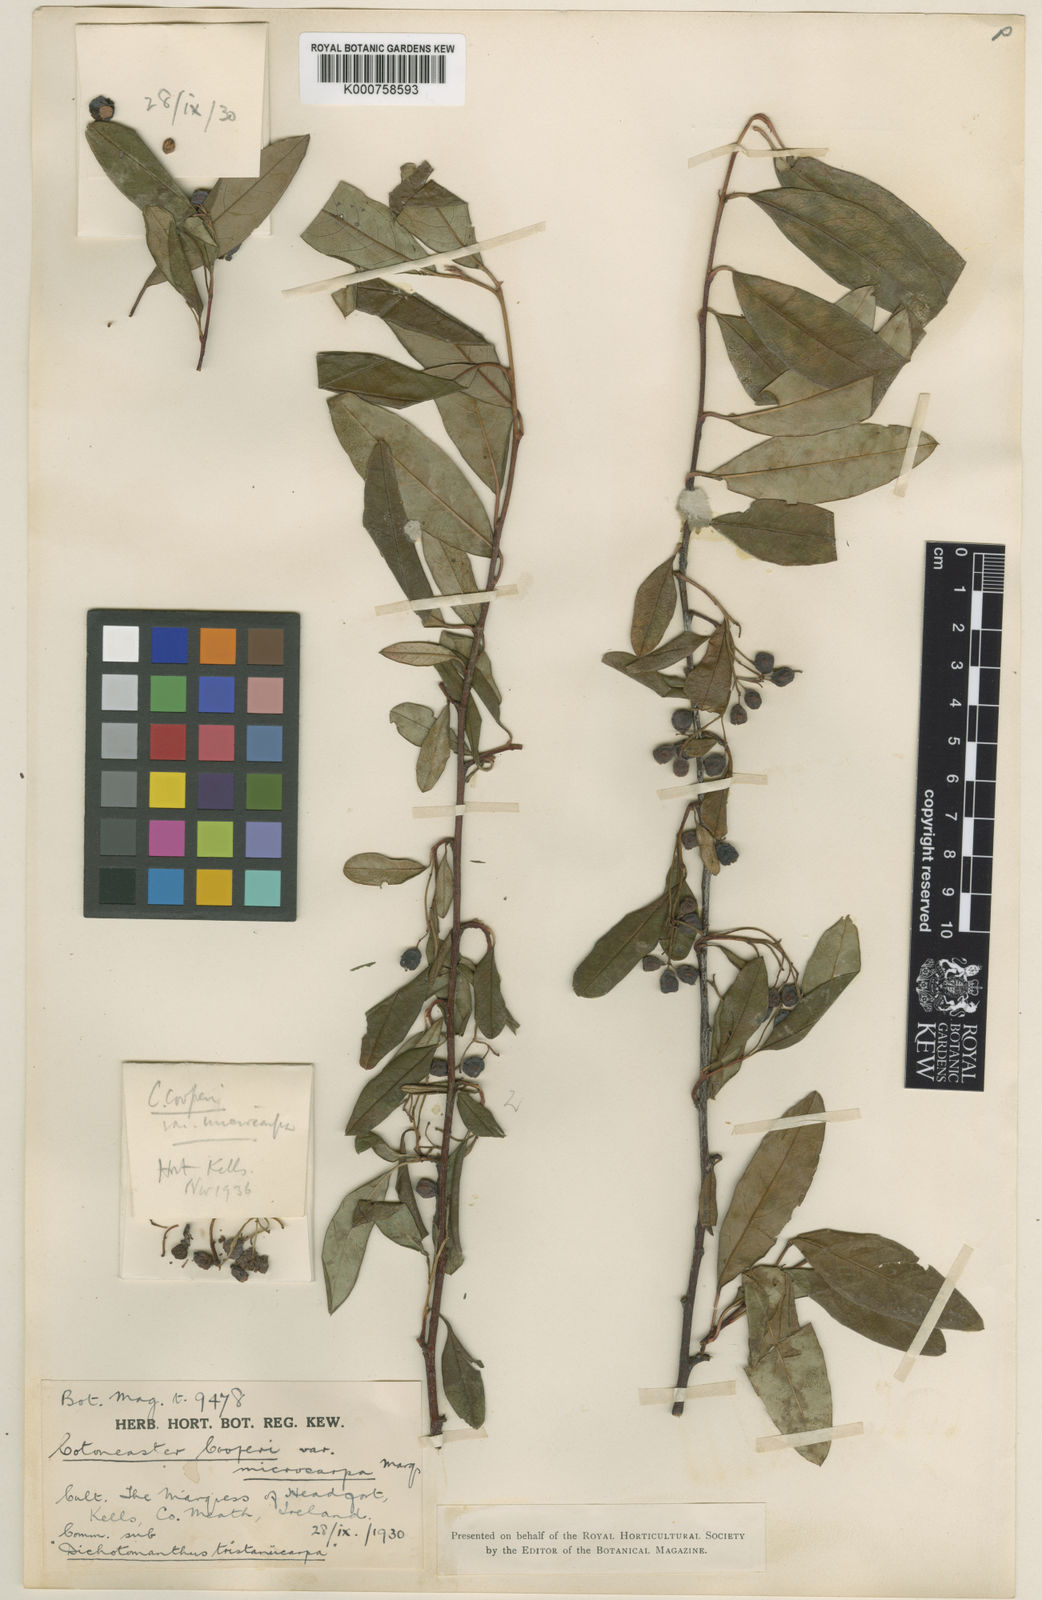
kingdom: Plantae
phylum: Tracheophyta
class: Magnoliopsida
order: Rosales
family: Rosaceae
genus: Cotoneaster
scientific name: Cotoneaster cooperi
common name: Cooper's cotoneaster
